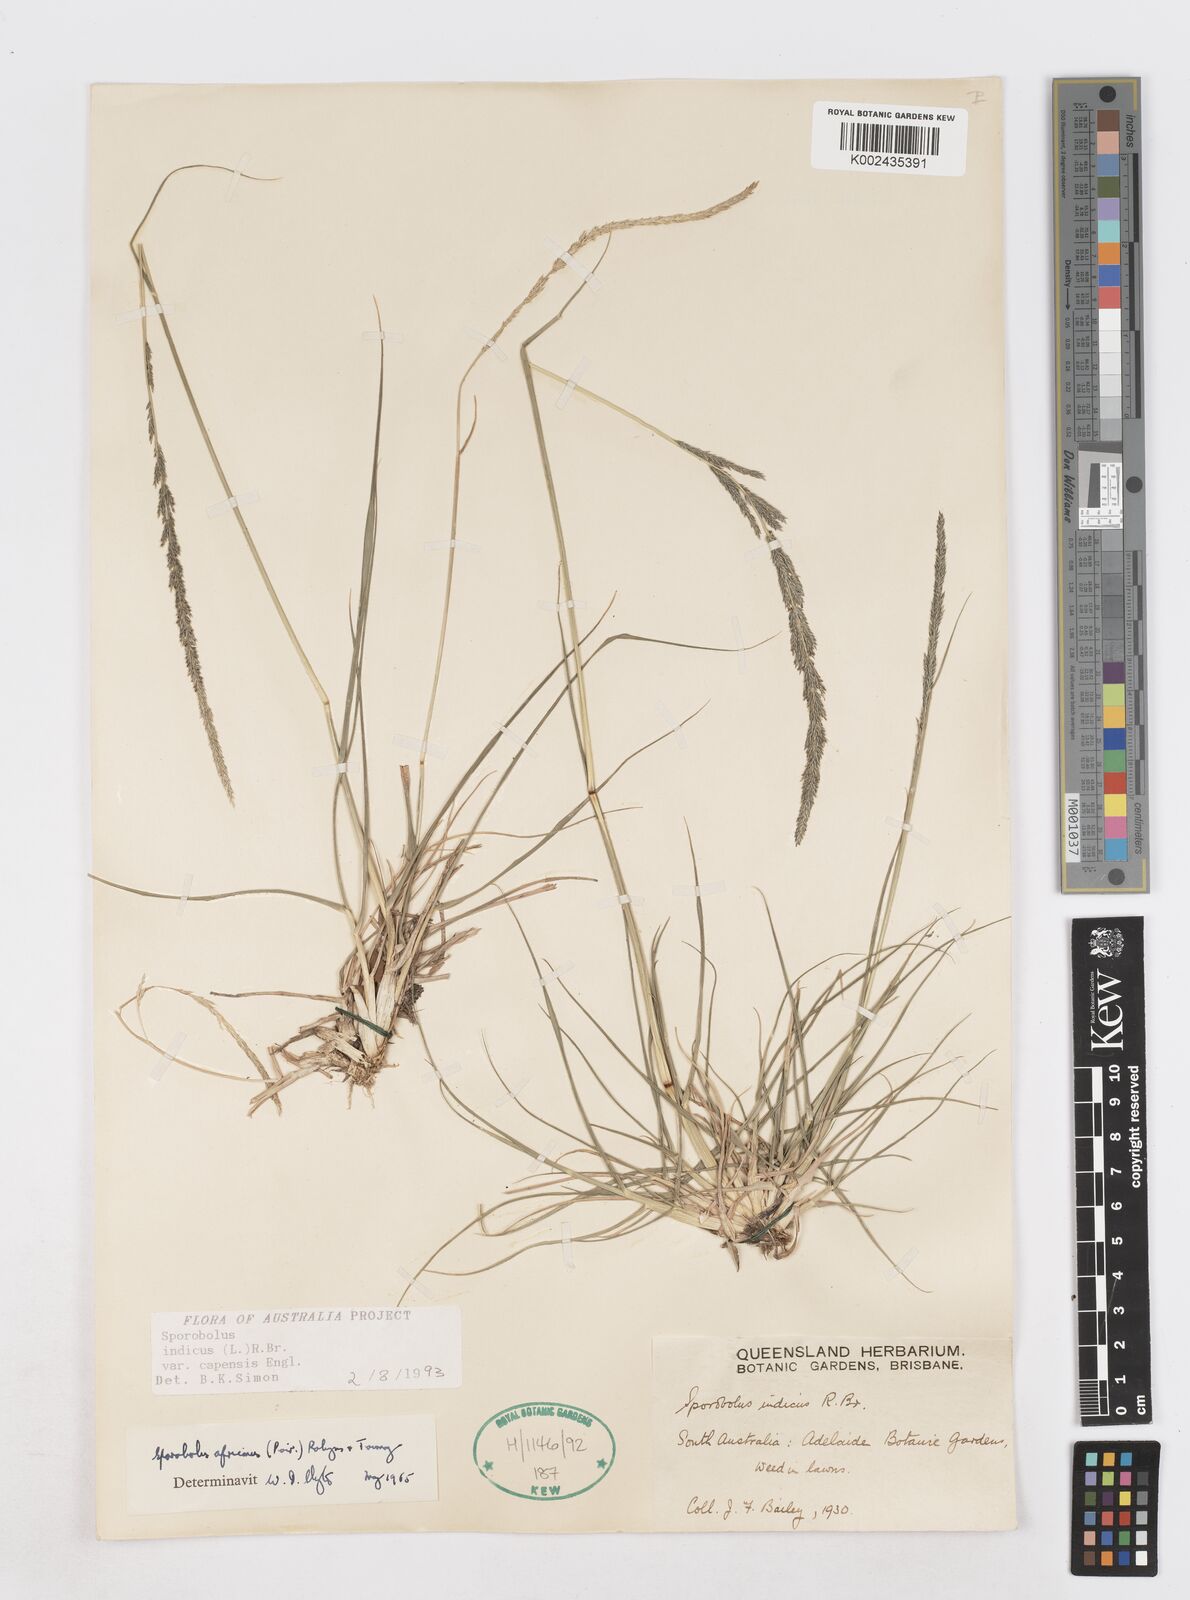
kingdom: Plantae
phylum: Tracheophyta
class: Liliopsida
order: Poales
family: Poaceae
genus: Sporobolus
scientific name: Sporobolus africanus
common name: African dropseed
